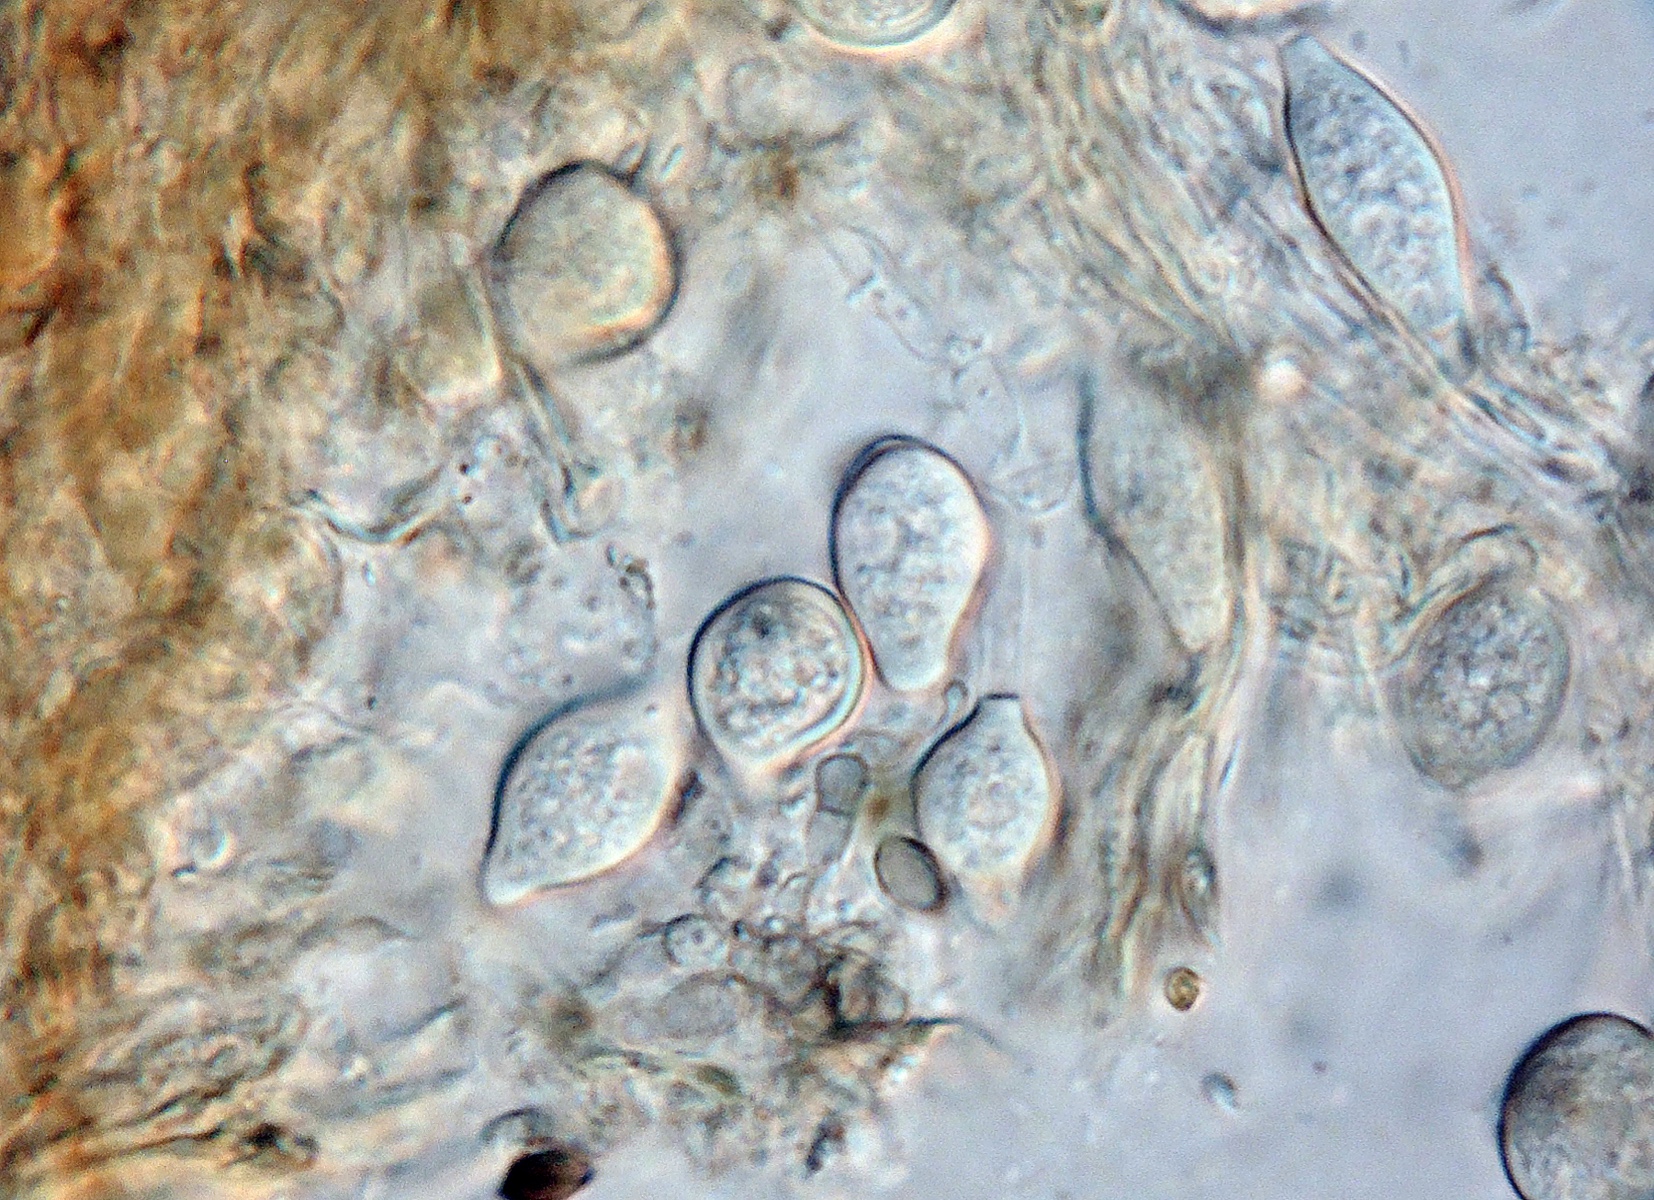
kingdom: Fungi
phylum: Chytridiomycota
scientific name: Chytridiomycota
